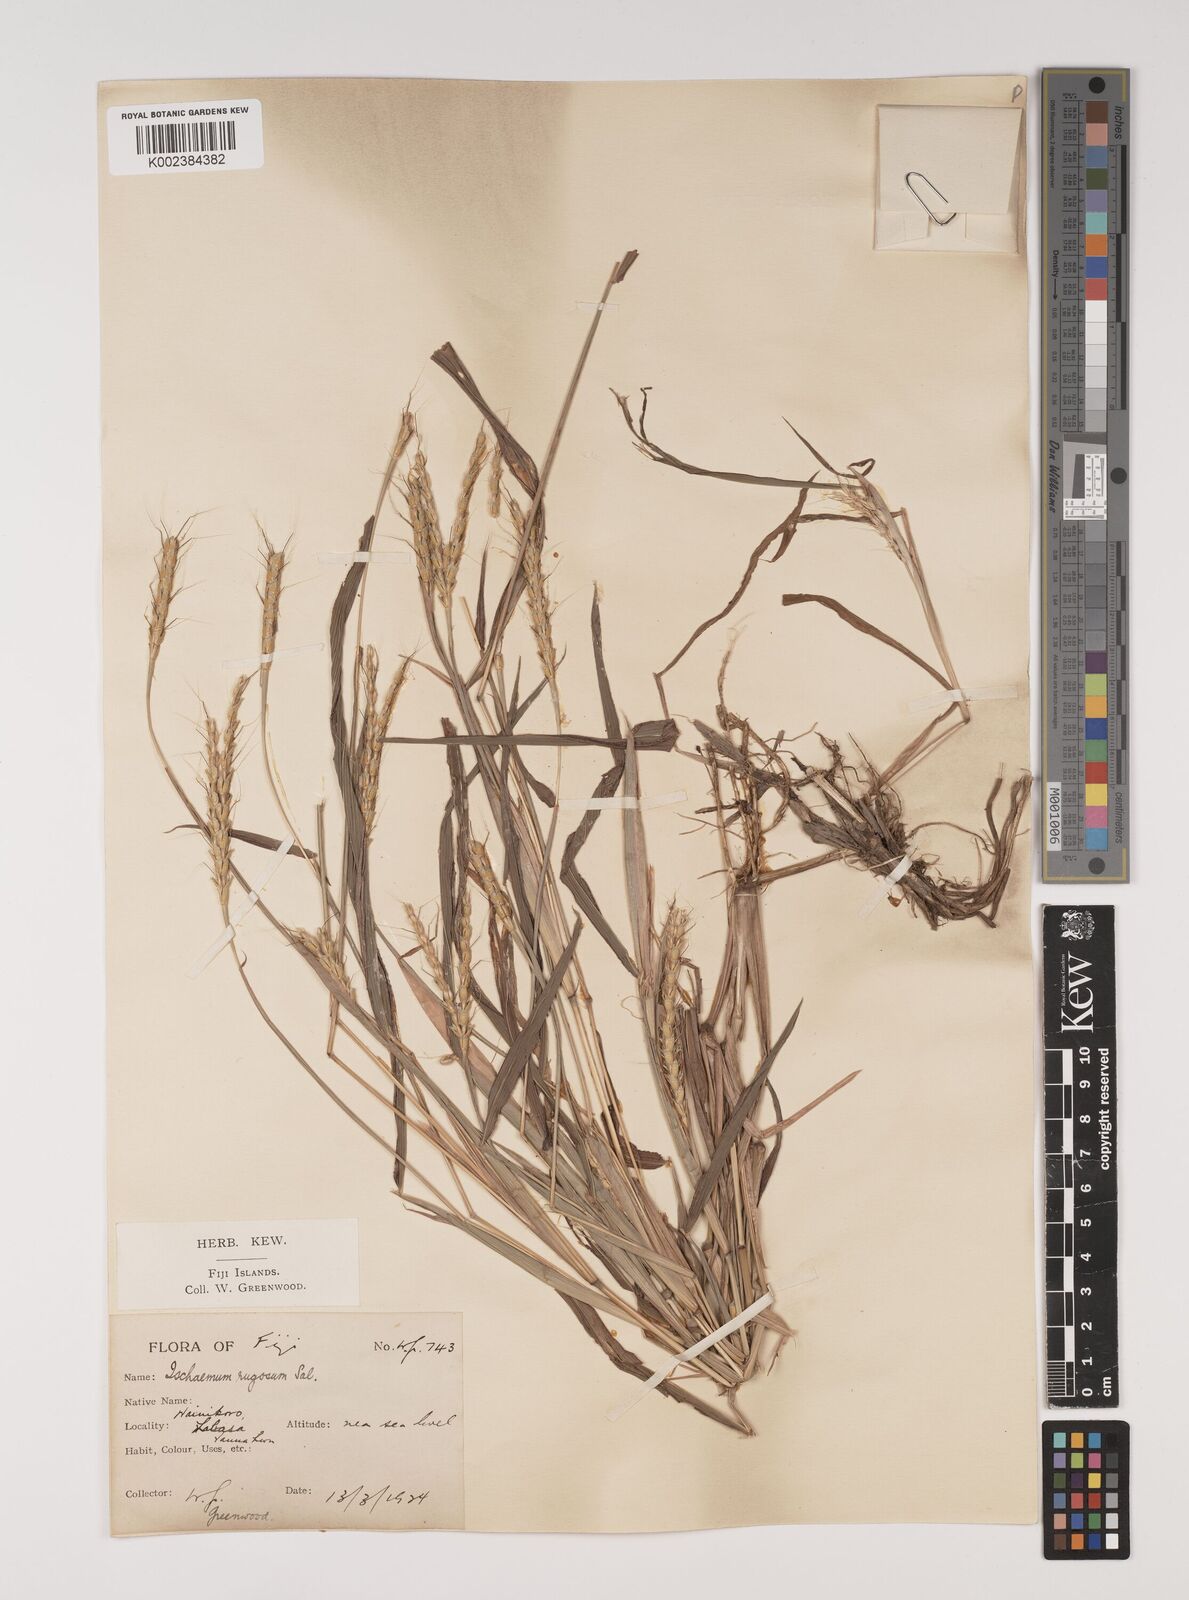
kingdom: Plantae
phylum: Tracheophyta
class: Liliopsida
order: Poales
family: Poaceae
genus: Ischaemum
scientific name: Ischaemum rugosum
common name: Saramatta grass
